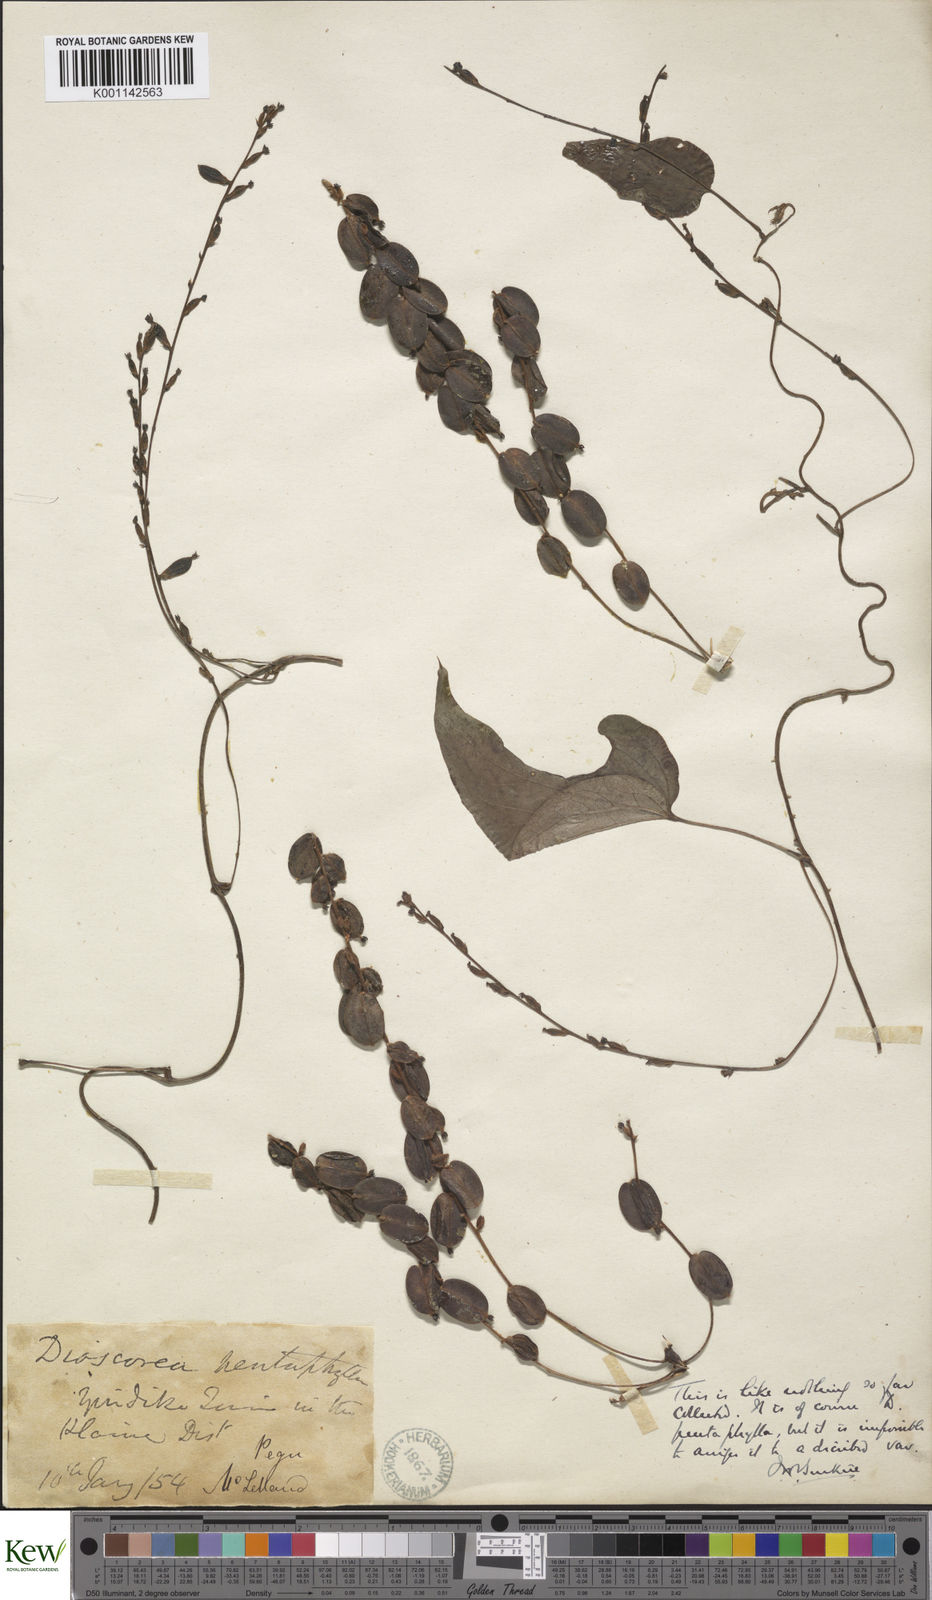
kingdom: Plantae
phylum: Tracheophyta
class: Liliopsida
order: Dioscoreales
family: Dioscoreaceae
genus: Dioscorea
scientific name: Dioscorea pentaphylla
